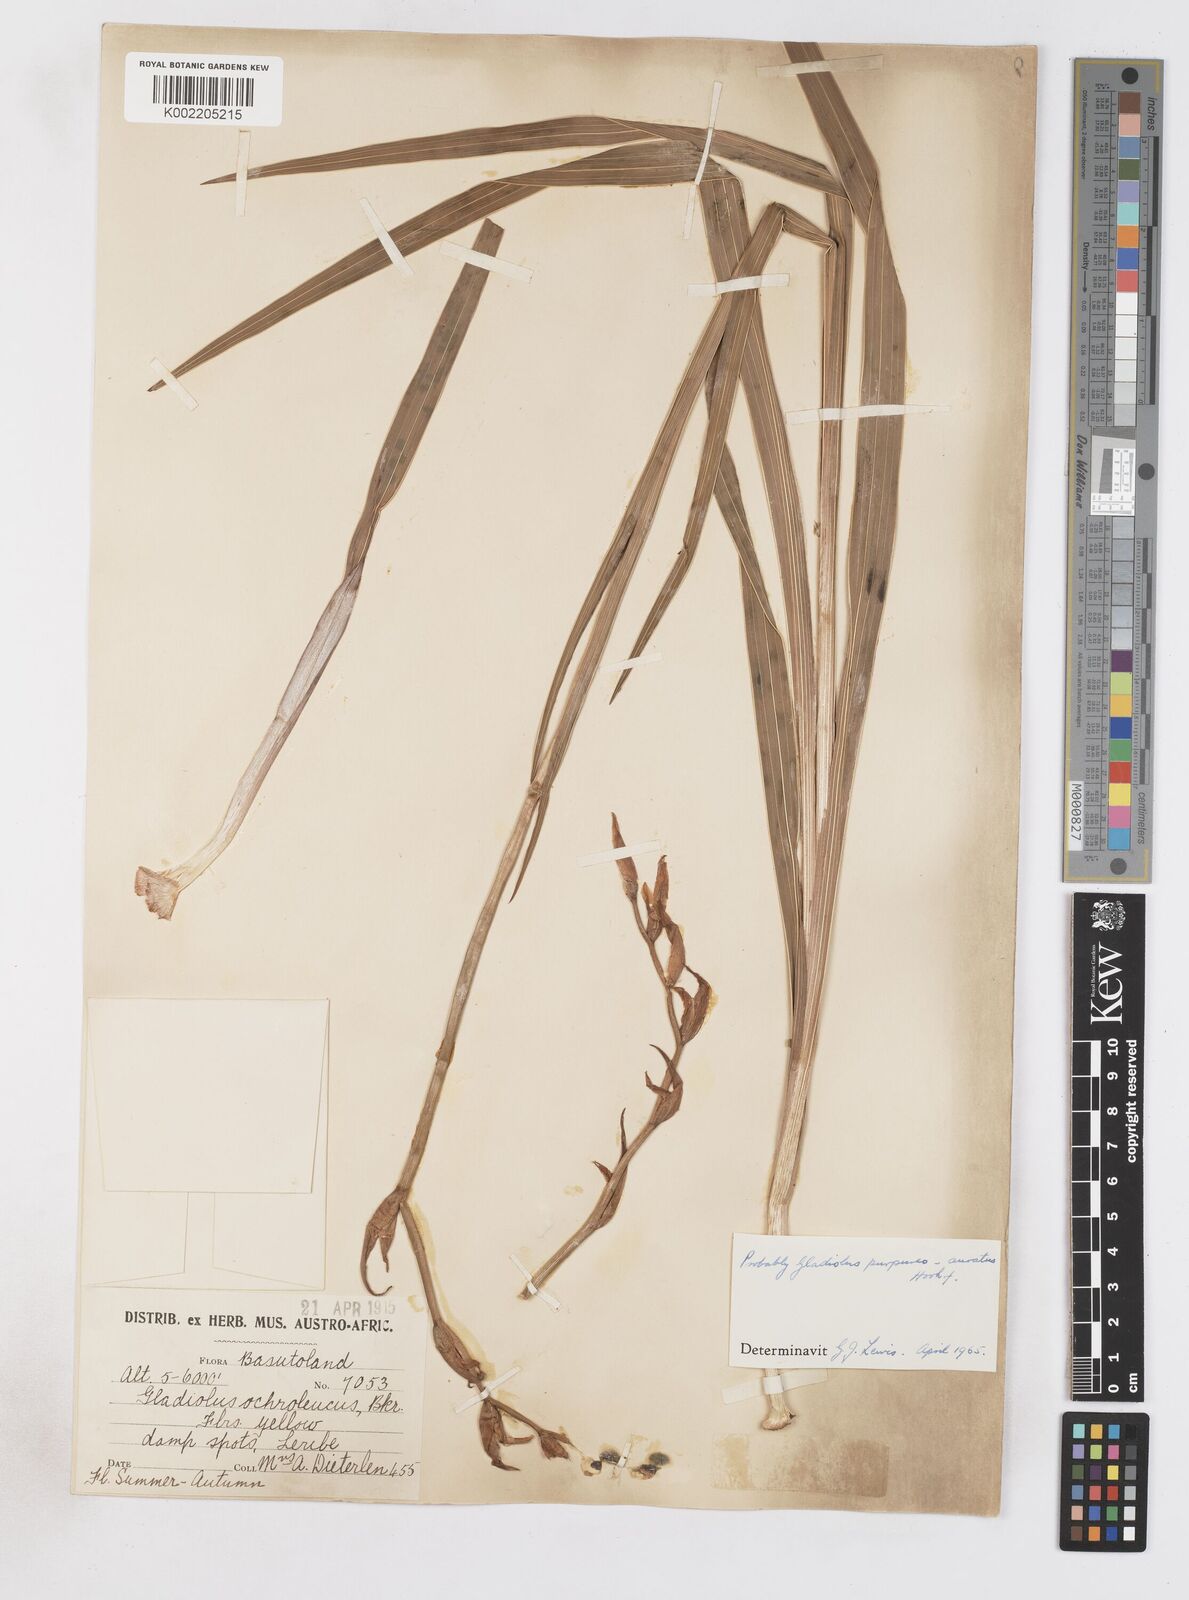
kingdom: Plantae
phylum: Tracheophyta
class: Liliopsida
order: Asparagales
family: Iridaceae
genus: Gladiolus
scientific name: Gladiolus papilio
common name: Goldblotch gladiolus
